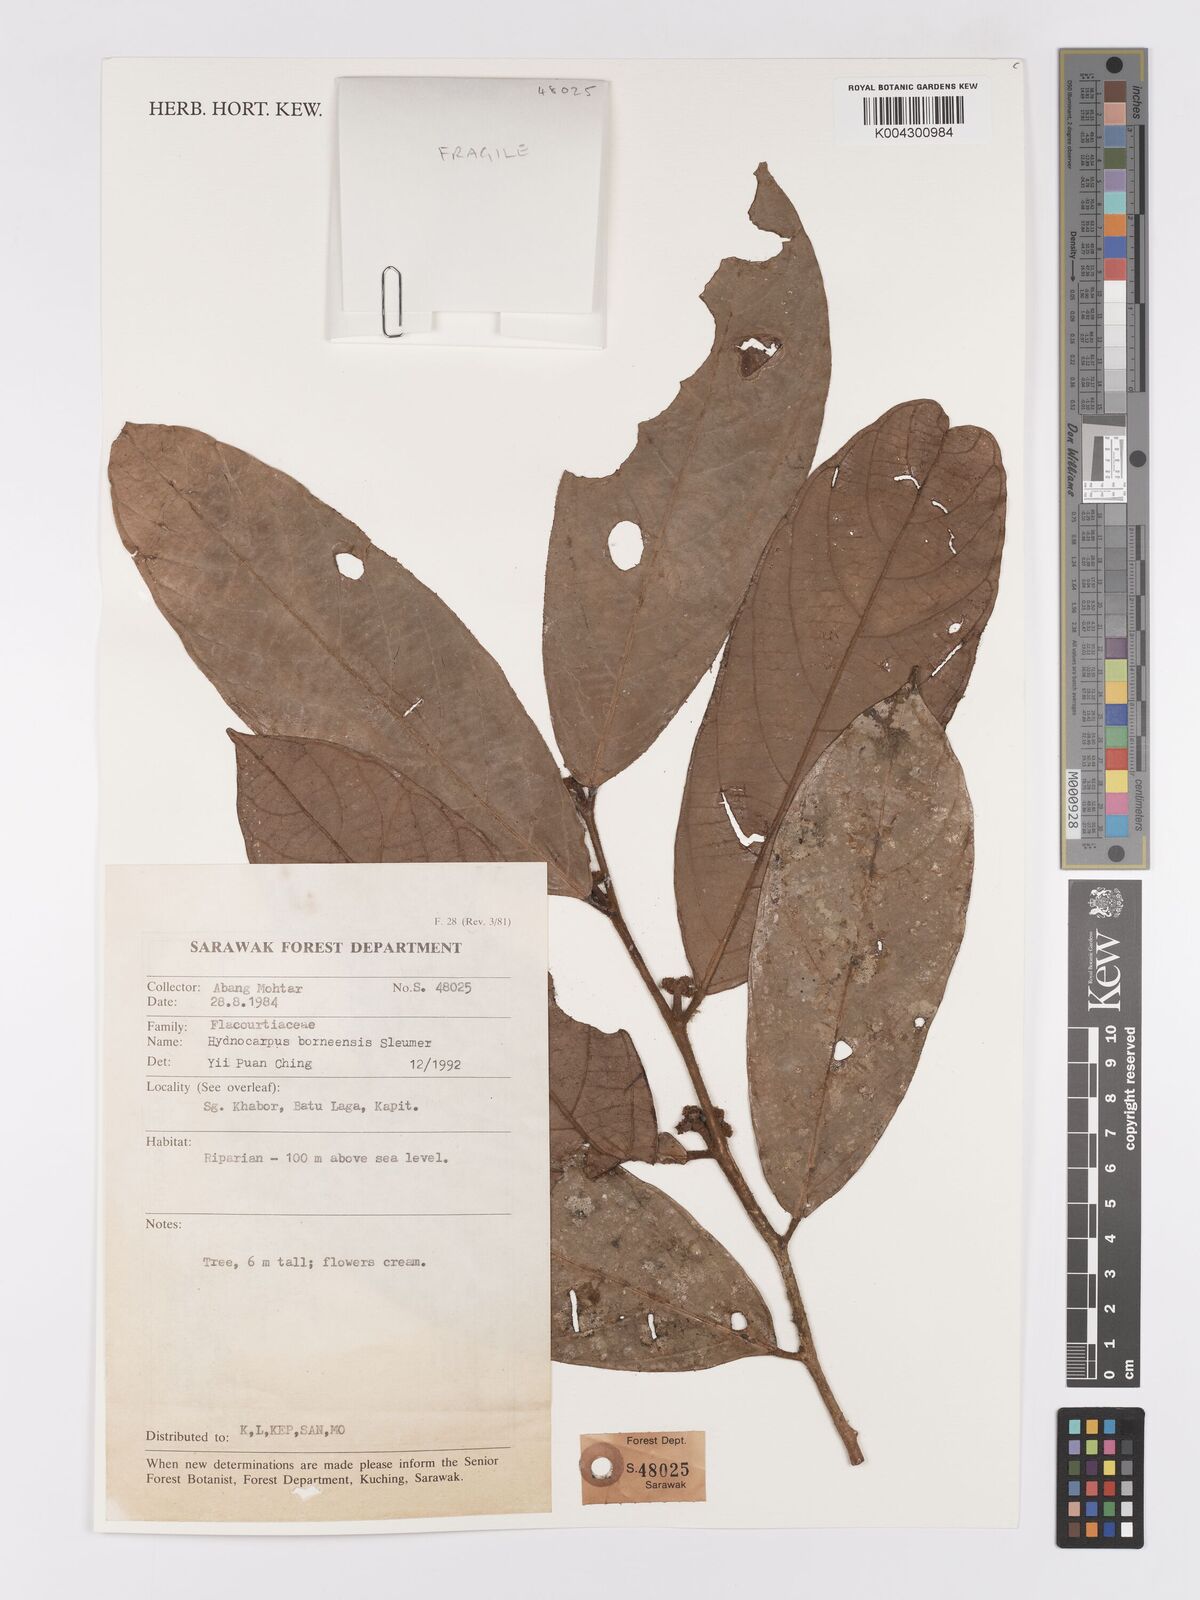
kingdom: Plantae
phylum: Tracheophyta
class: Magnoliopsida
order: Malpighiales
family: Achariaceae
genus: Hydnocarpus
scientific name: Hydnocarpus borneensis
